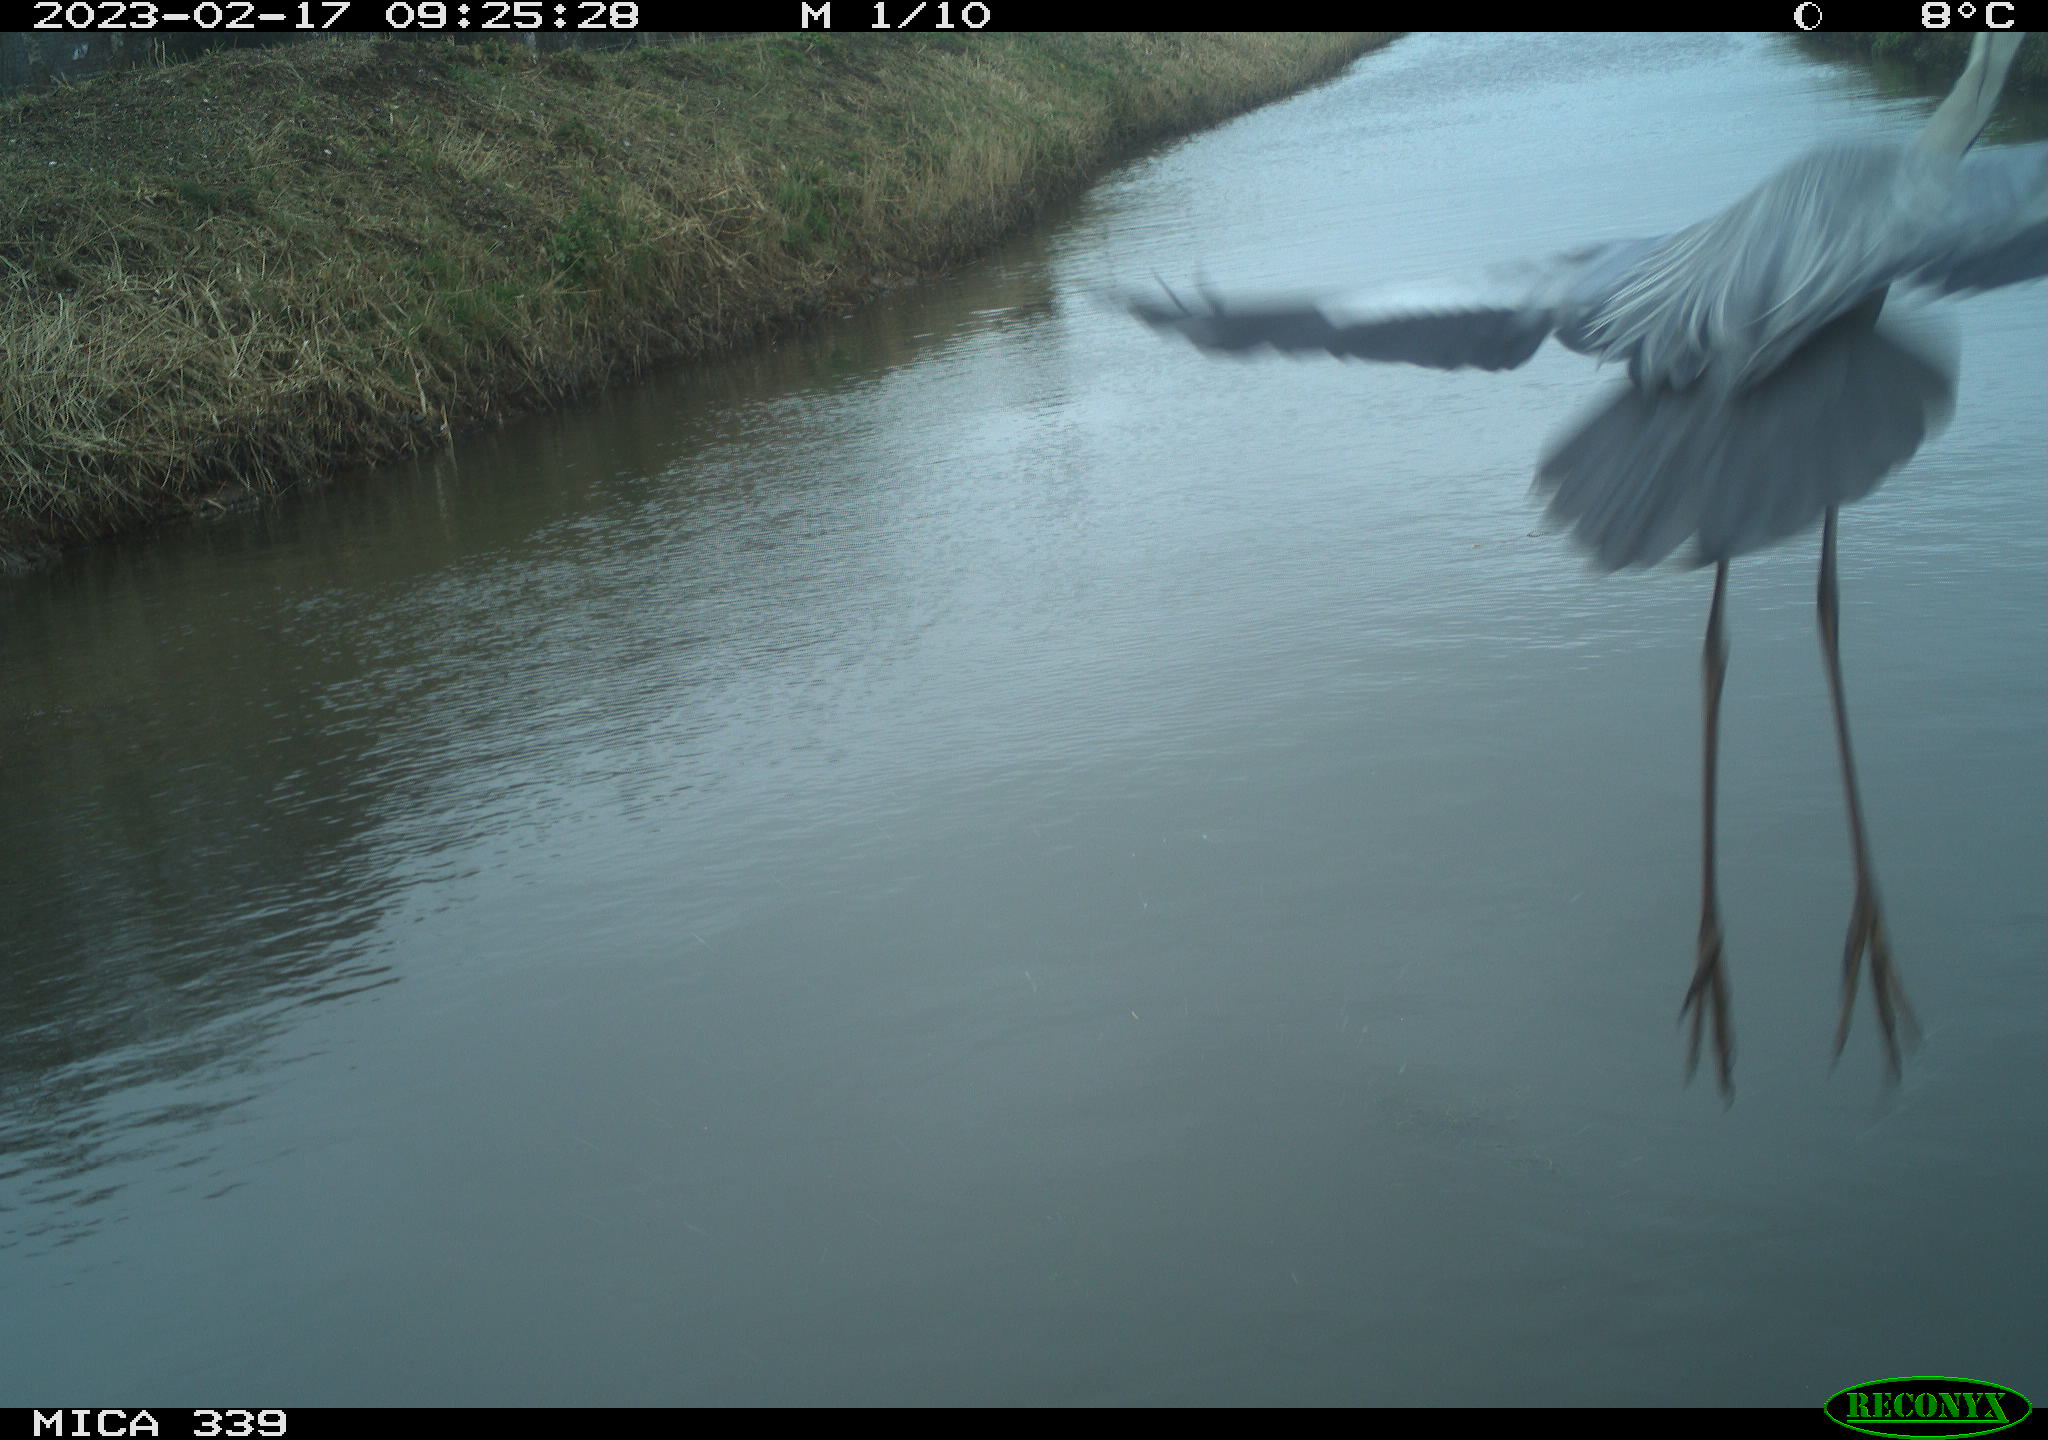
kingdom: Animalia
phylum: Chordata
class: Aves
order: Pelecaniformes
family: Ardeidae
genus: Ardea
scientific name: Ardea cinerea
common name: Grey heron
